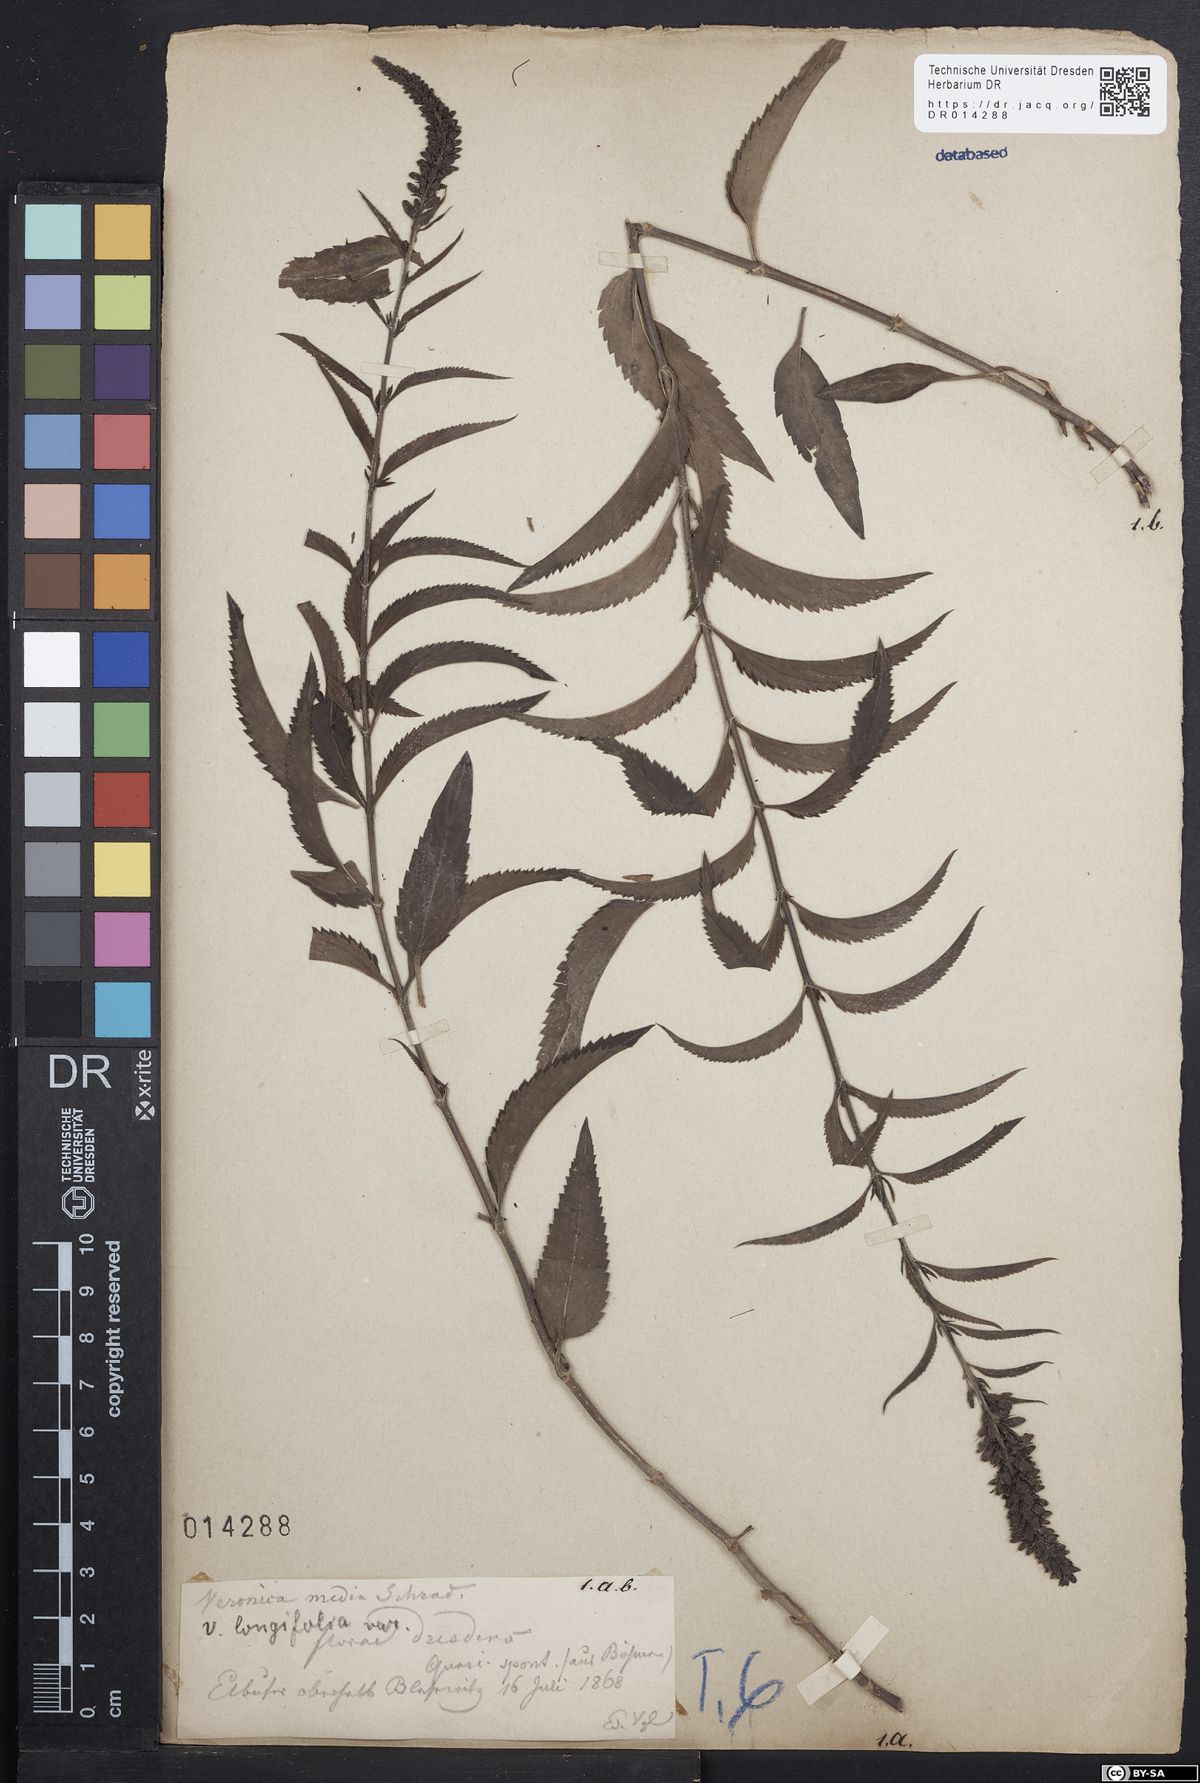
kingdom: Plantae
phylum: Tracheophyta
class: Magnoliopsida
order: Lamiales
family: Plantaginaceae
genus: Veronica
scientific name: Veronica longifolia
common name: Garden speedwell
